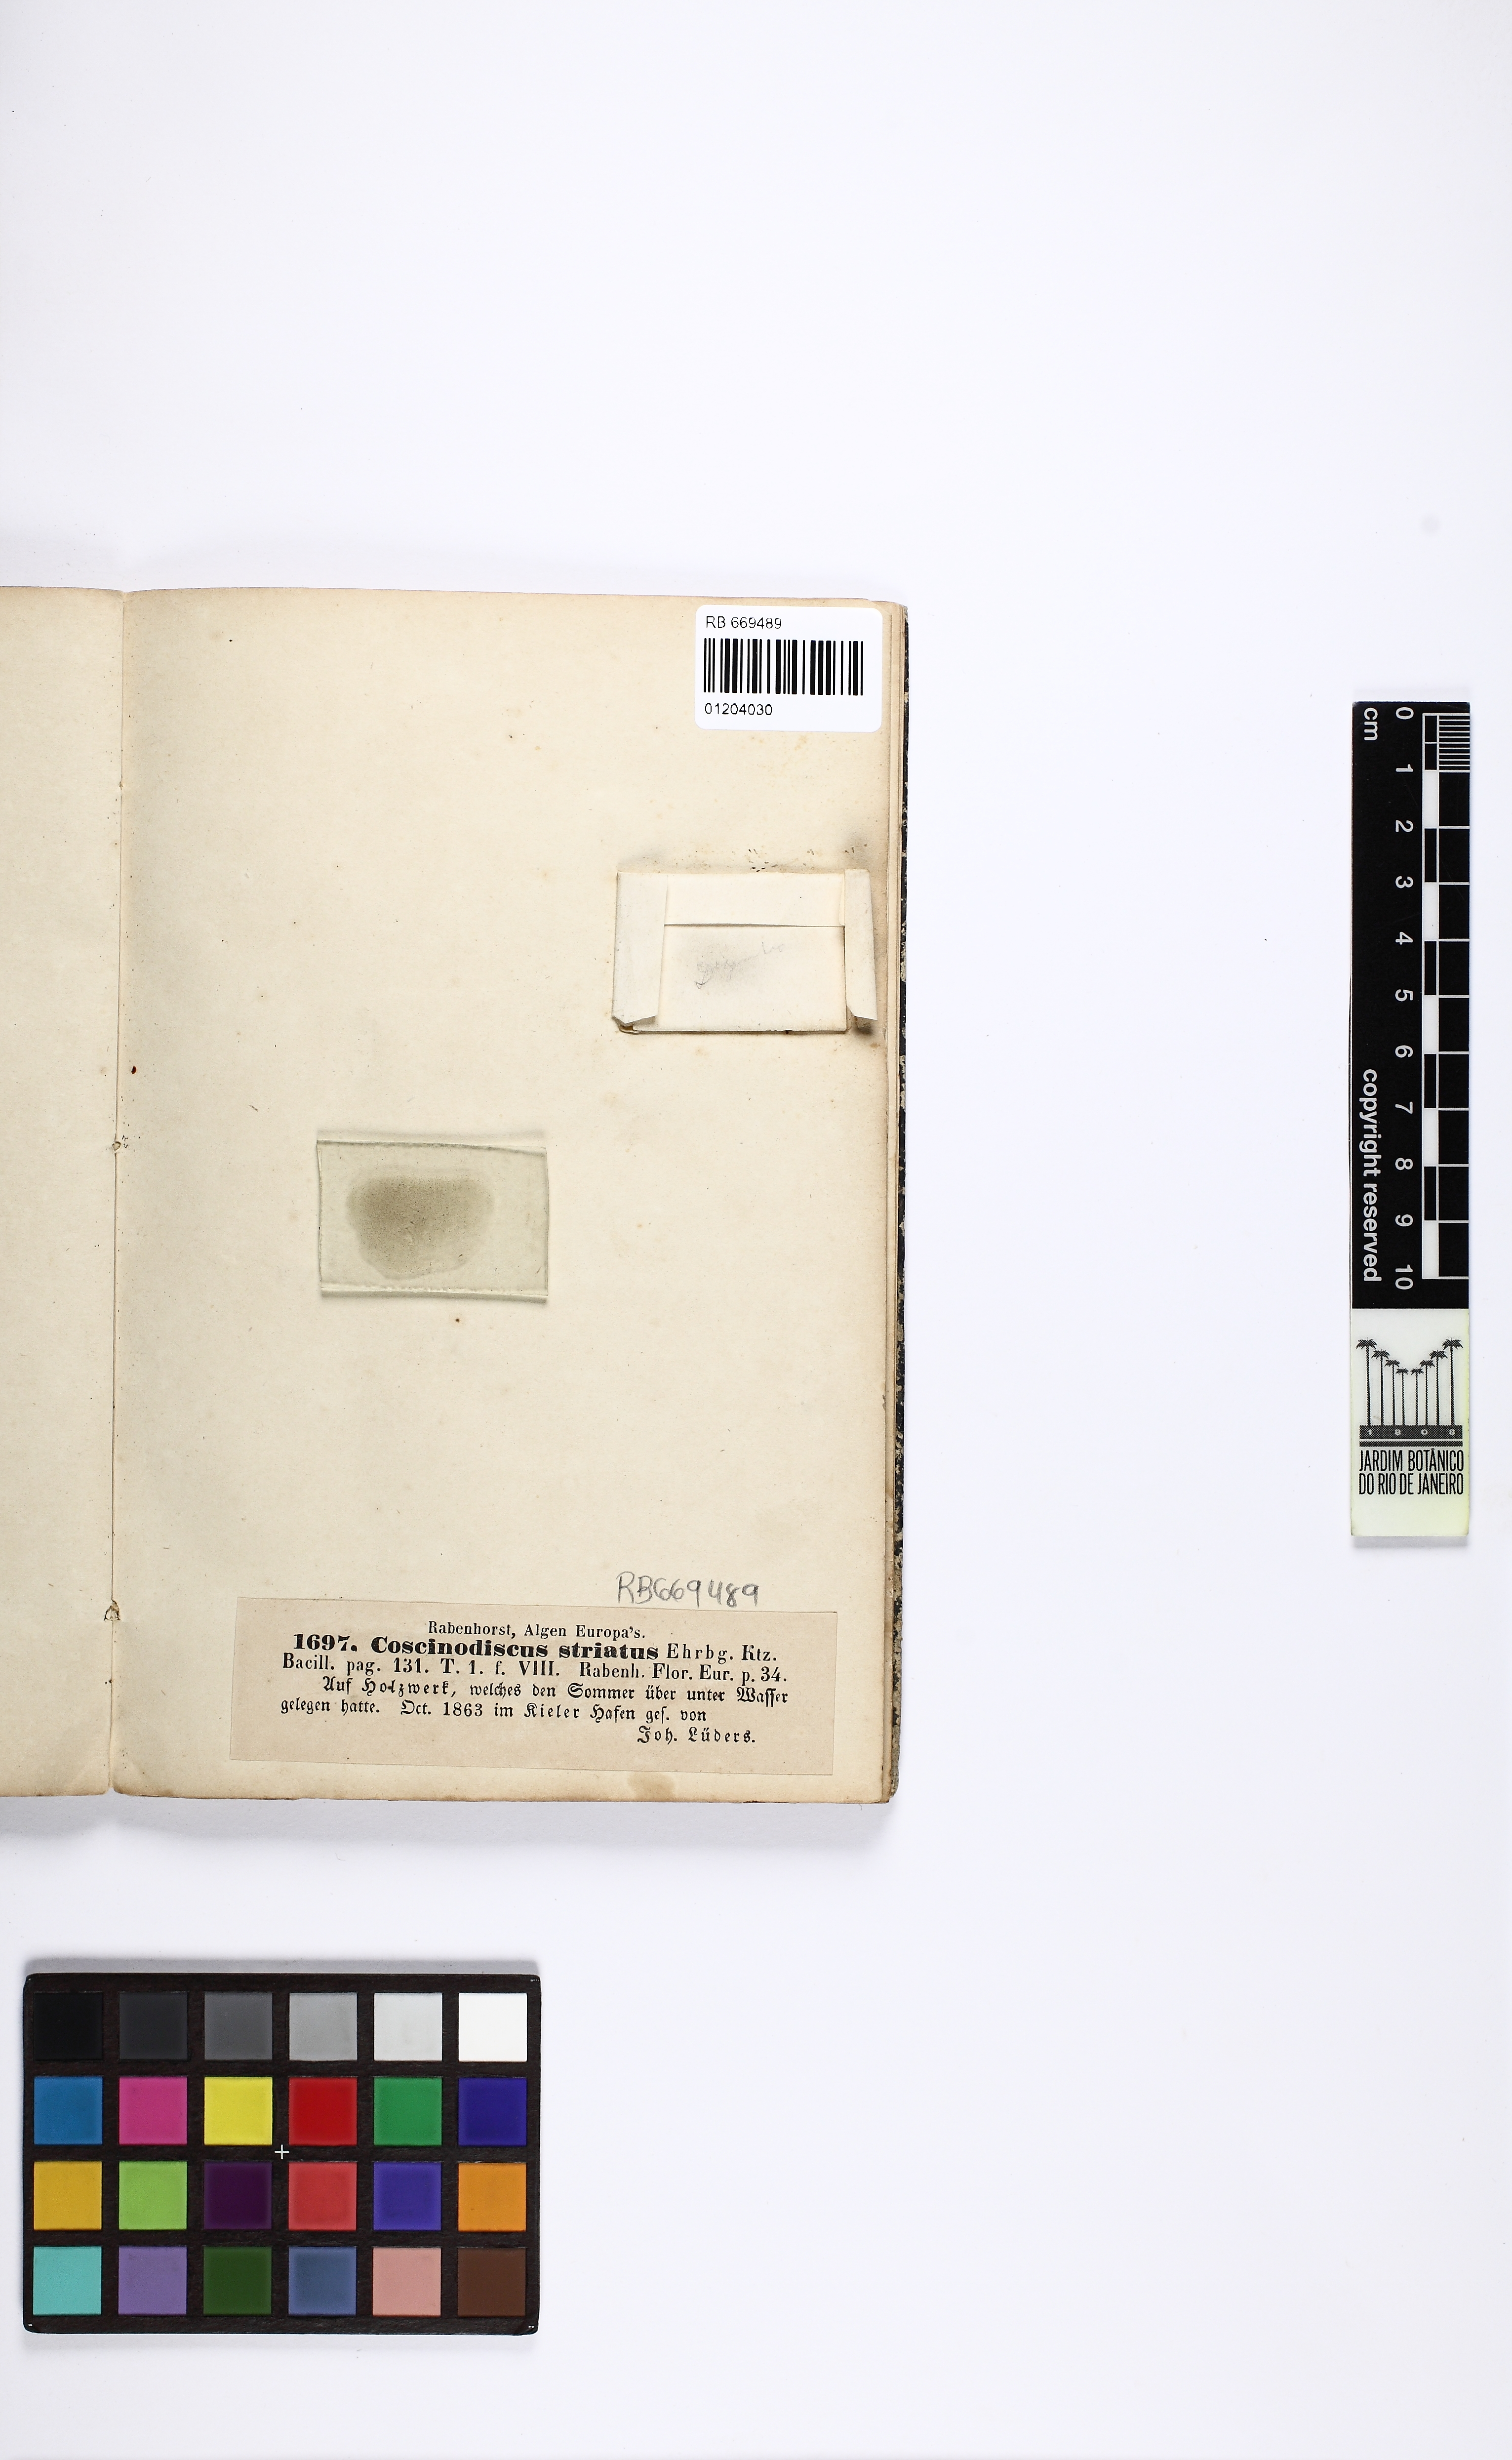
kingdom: Chromista
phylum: Ochrophyta
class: Bacillariophyceae
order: Coscinodiscales
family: Coscinodiscaceae
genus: Coscinodiscus
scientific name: Coscinodiscus striatus
